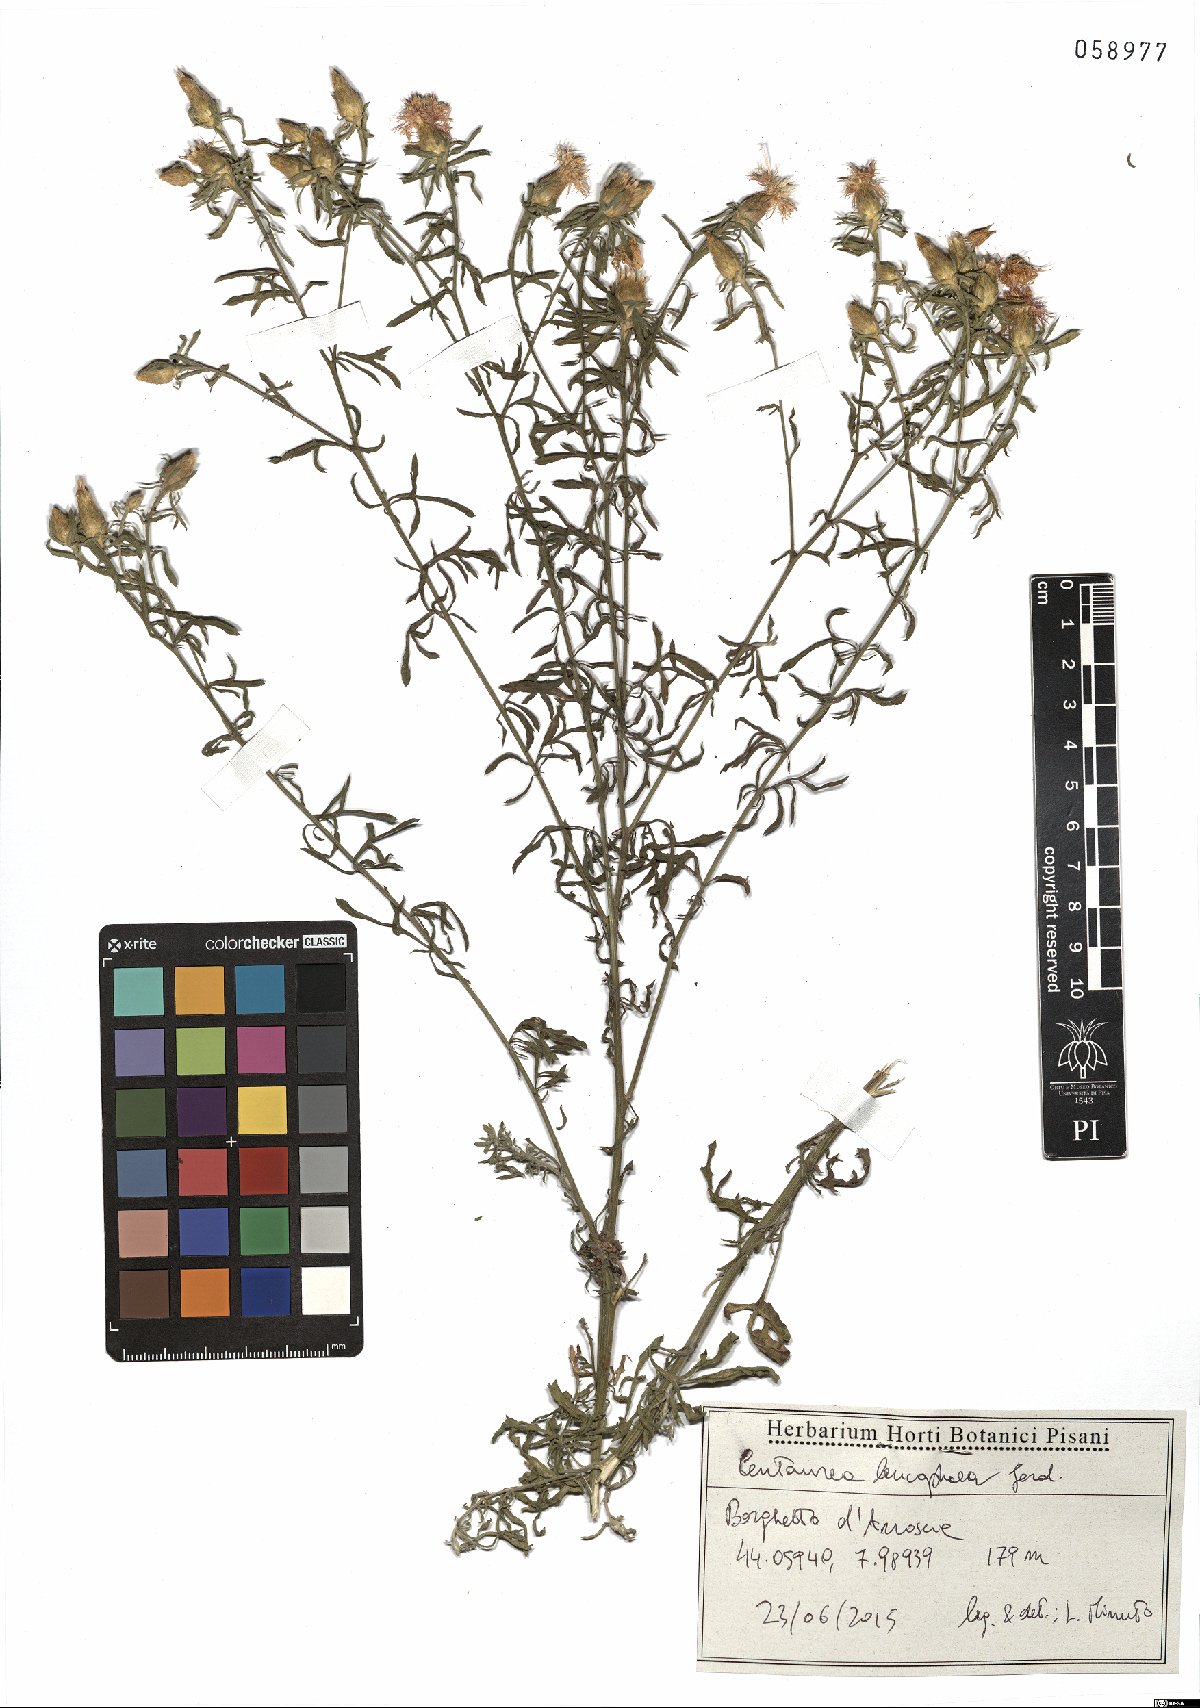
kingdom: Plantae
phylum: Tracheophyta
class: Magnoliopsida
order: Asterales
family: Asteraceae
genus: Centaurea
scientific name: Centaurea leucophaea
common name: Whitish-leaved knapweed
